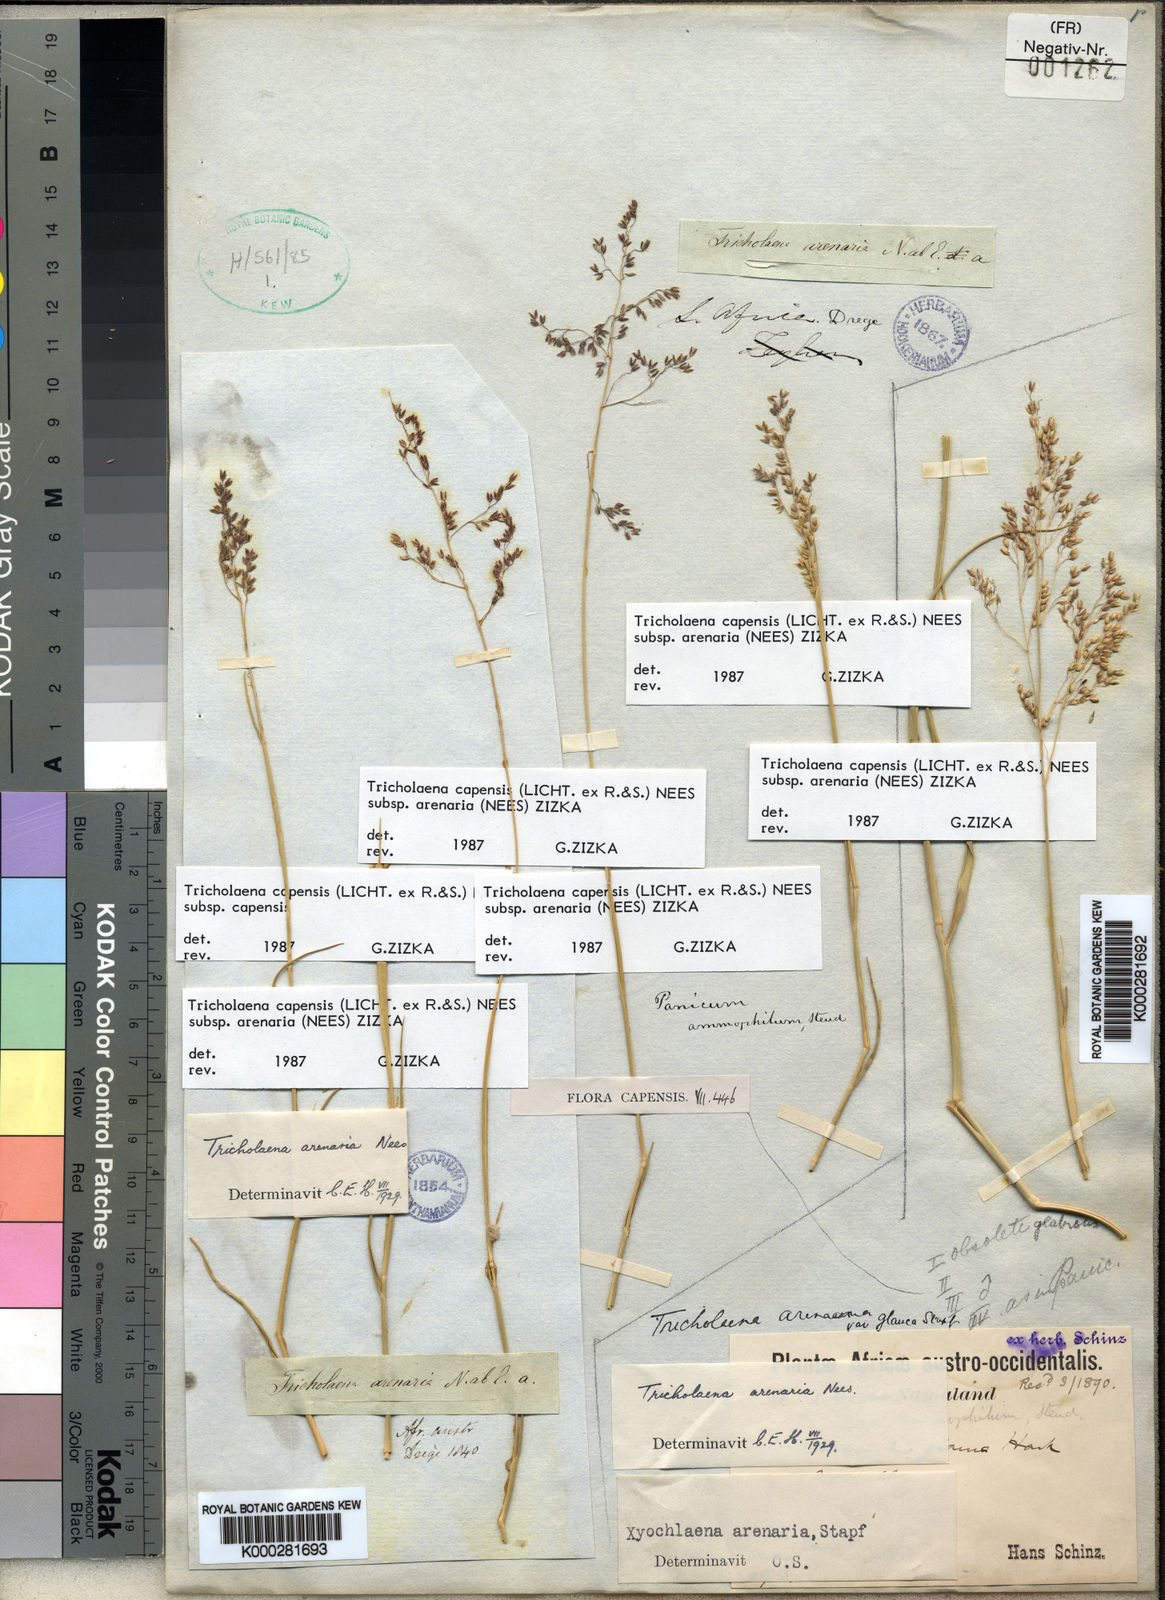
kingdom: Plantae
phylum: Tracheophyta
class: Liliopsida
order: Poales
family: Poaceae
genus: Tricholaena
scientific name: Tricholaena capensis
